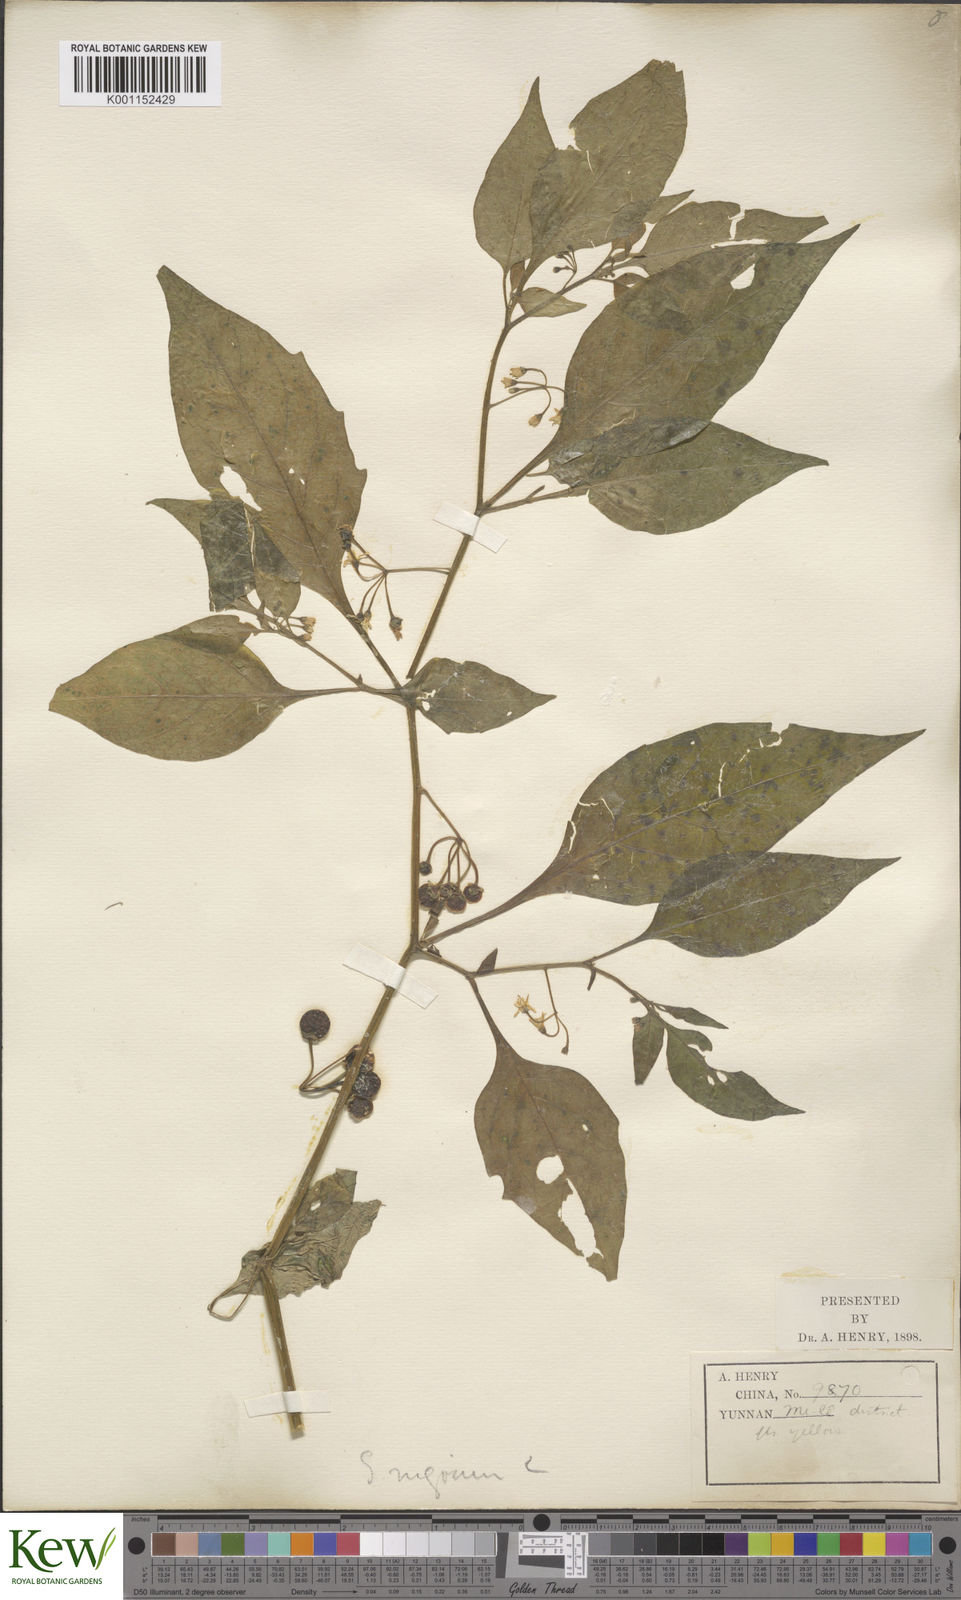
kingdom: Plantae
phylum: Tracheophyta
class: Magnoliopsida
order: Solanales
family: Solanaceae
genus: Solanum
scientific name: Solanum scabrum
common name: Garden-huckleberry
